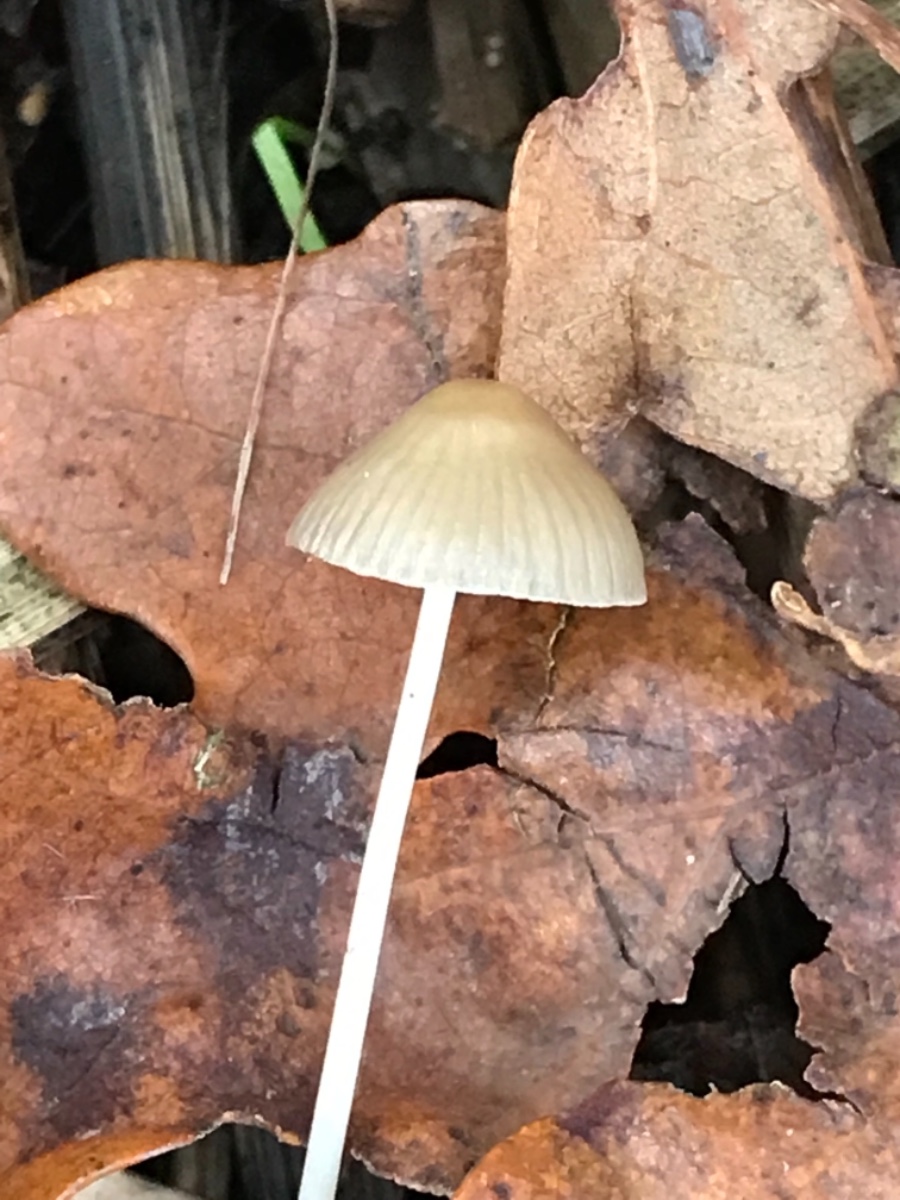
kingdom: Fungi
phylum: Basidiomycota
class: Agaricomycetes
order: Agaricales
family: Mycenaceae
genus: Mycena
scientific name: Mycena
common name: huesvamp
